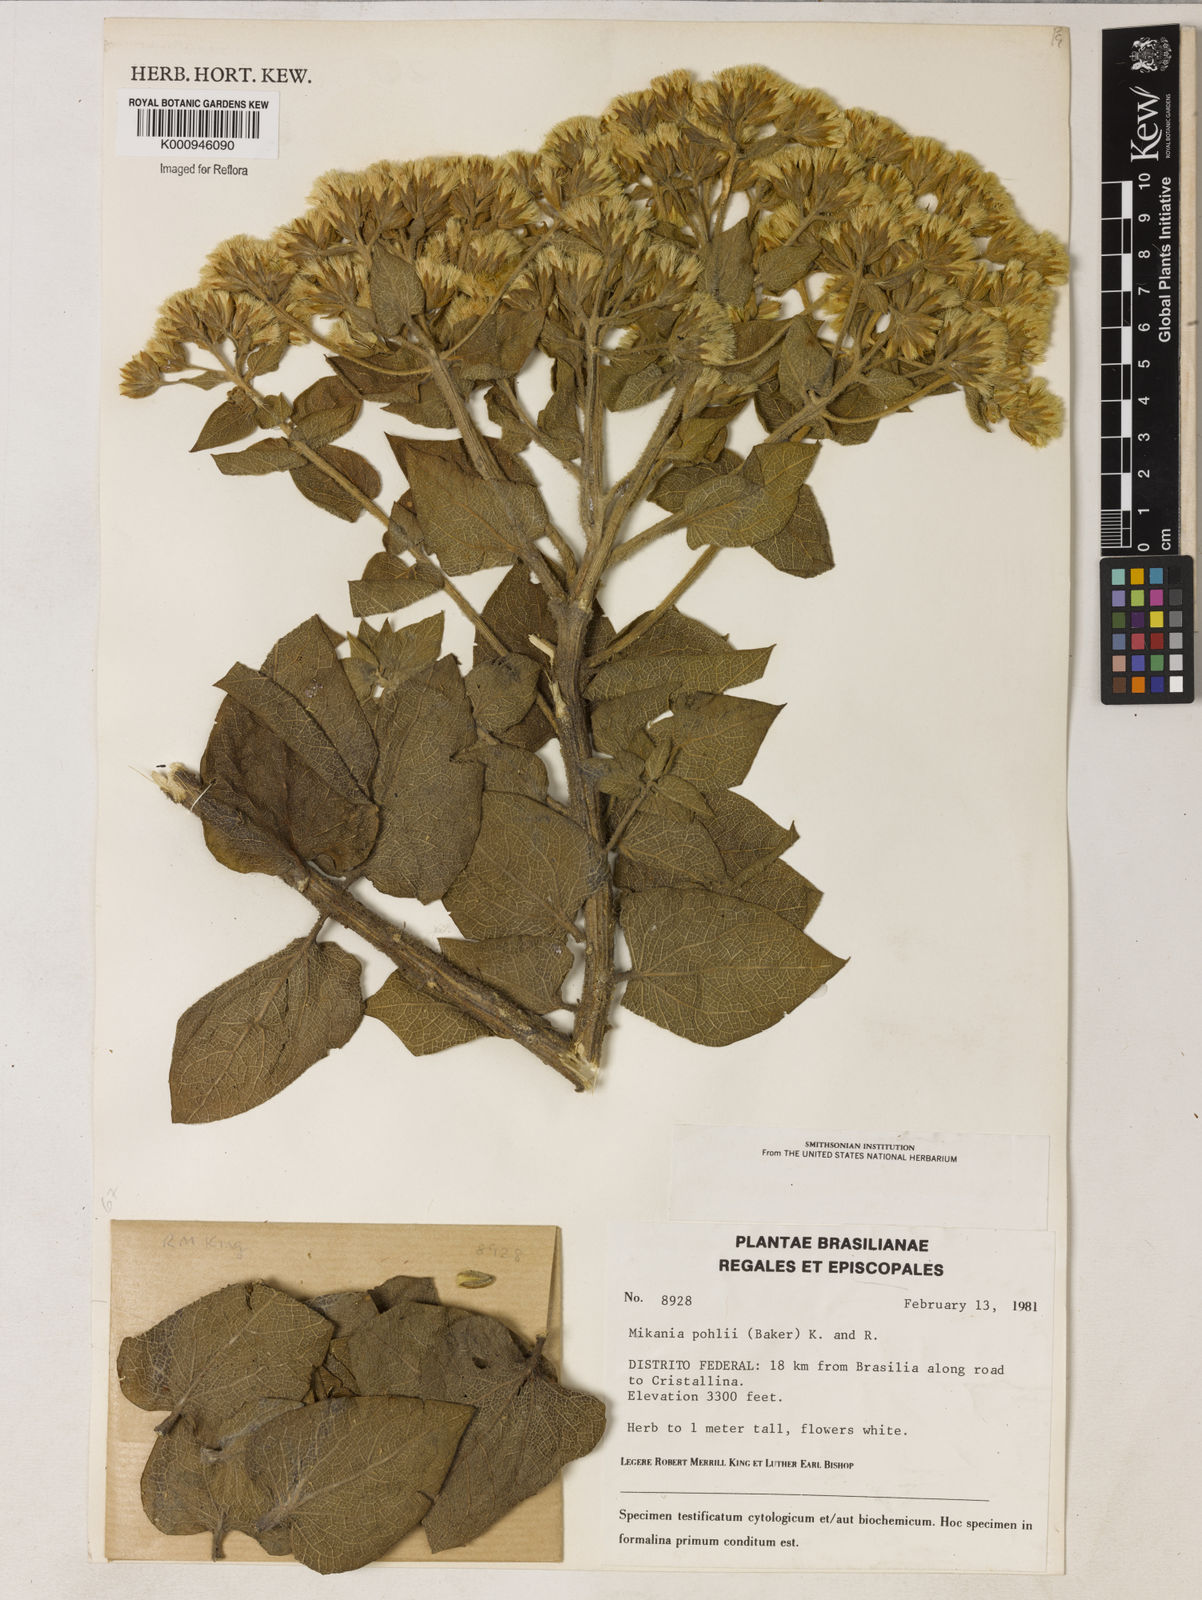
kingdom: Plantae
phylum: Tracheophyta
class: Magnoliopsida
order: Asterales
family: Asteraceae
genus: Mikania
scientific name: Mikania pohlii
